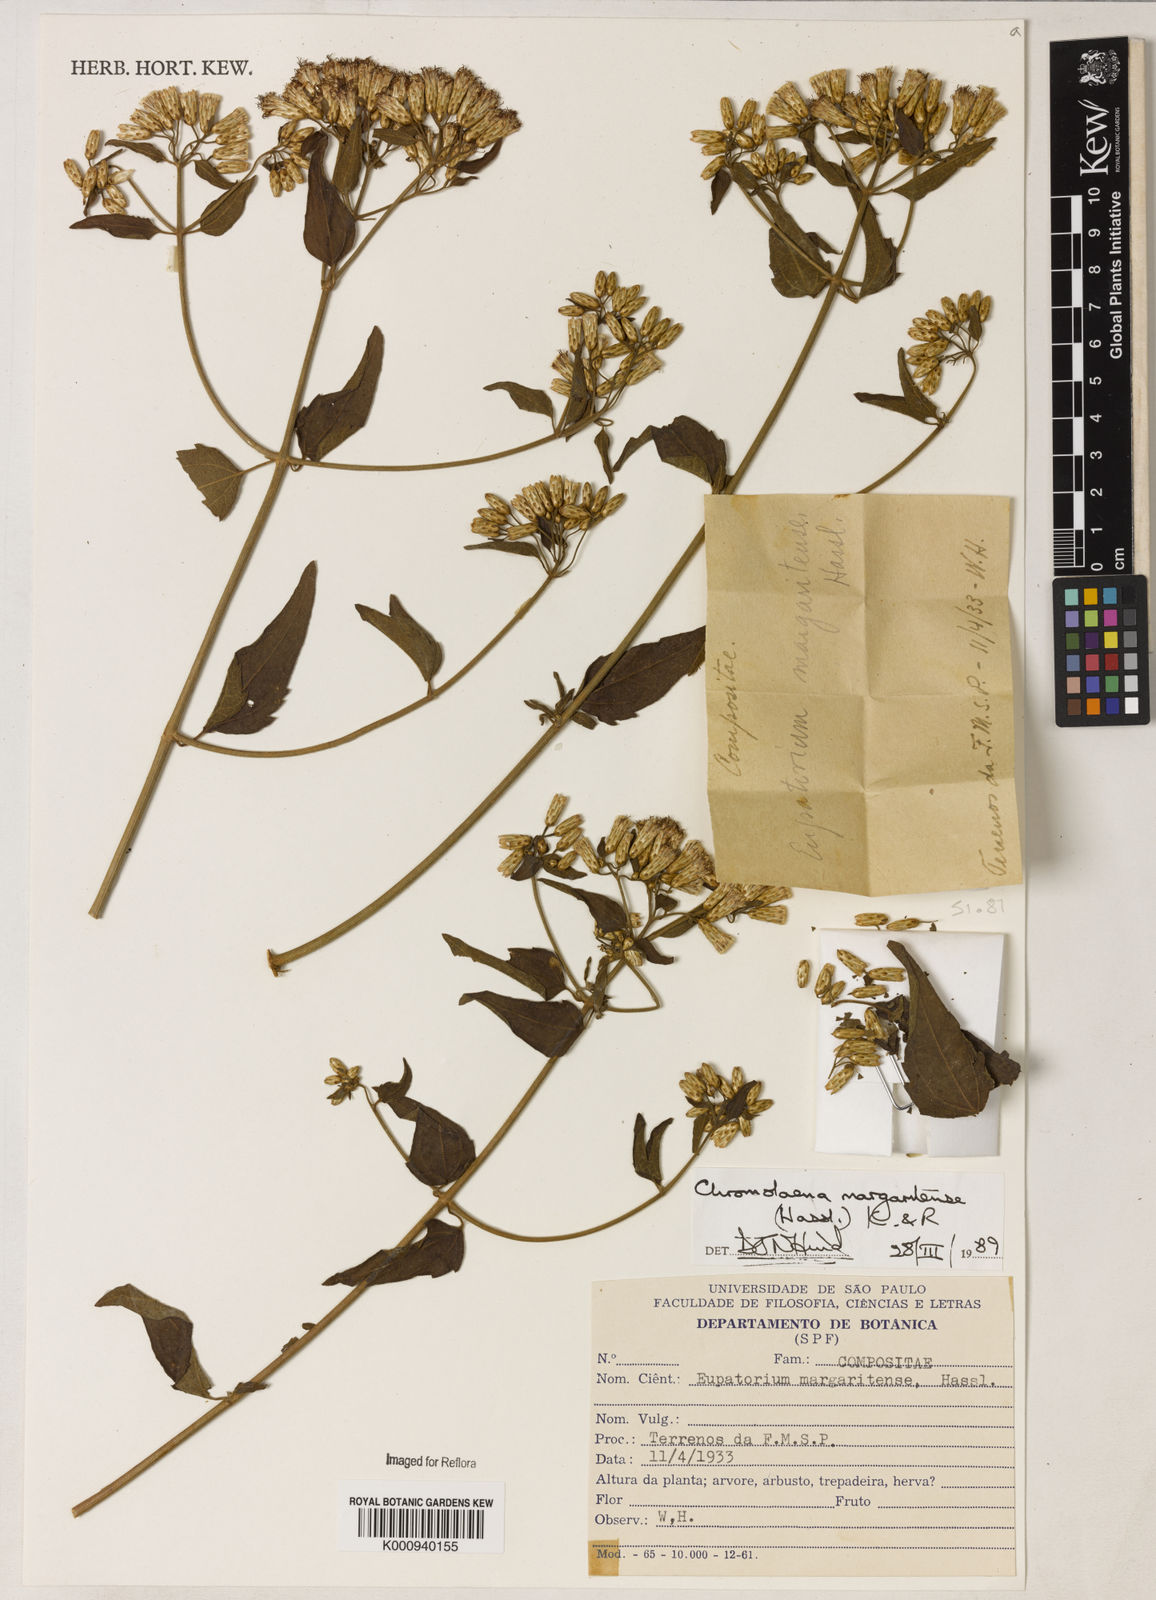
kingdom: Plantae
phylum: Tracheophyta
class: Magnoliopsida
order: Asterales
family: Asteraceae
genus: Chromolaena
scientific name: Chromolaena margaritensis
